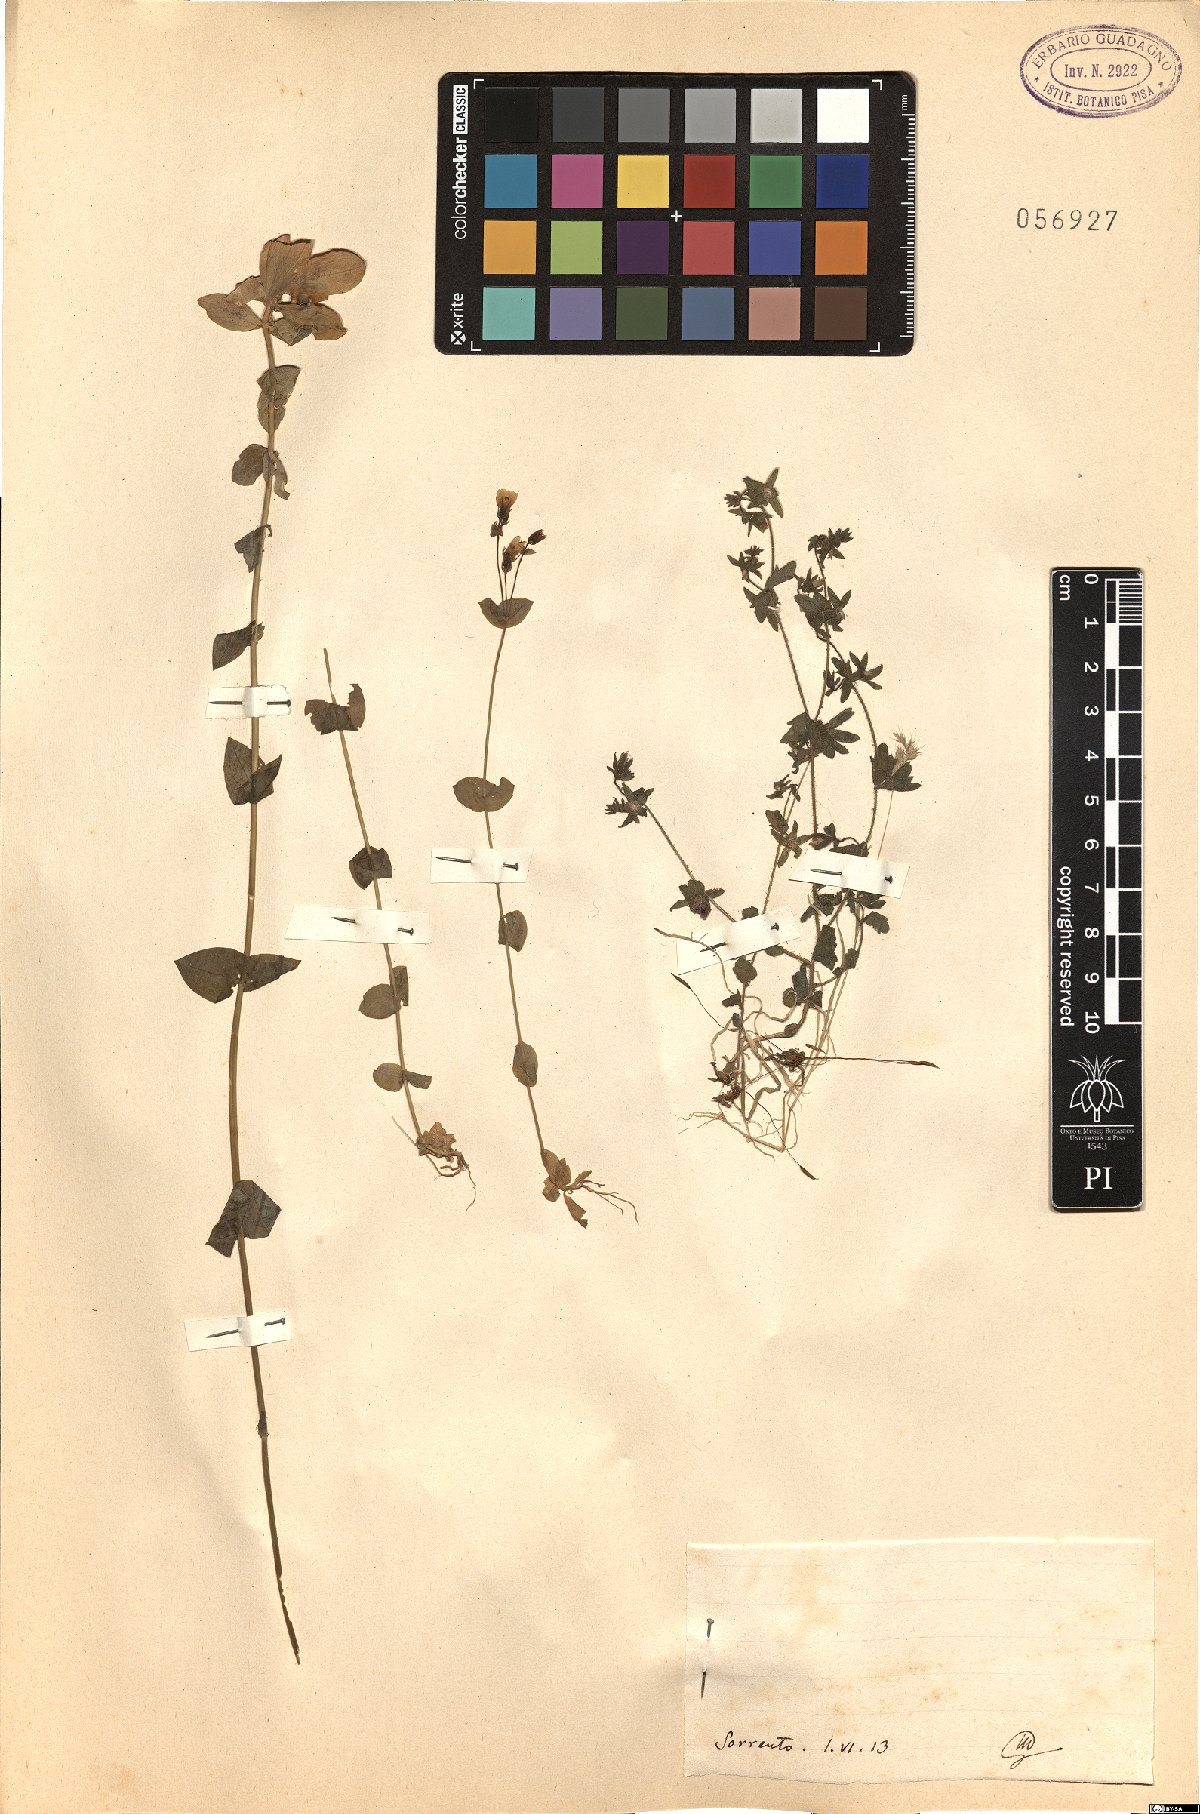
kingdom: Plantae
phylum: Tracheophyta
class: Magnoliopsida
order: Gentianales
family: Gentianaceae
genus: Blackstonia
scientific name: Blackstonia
